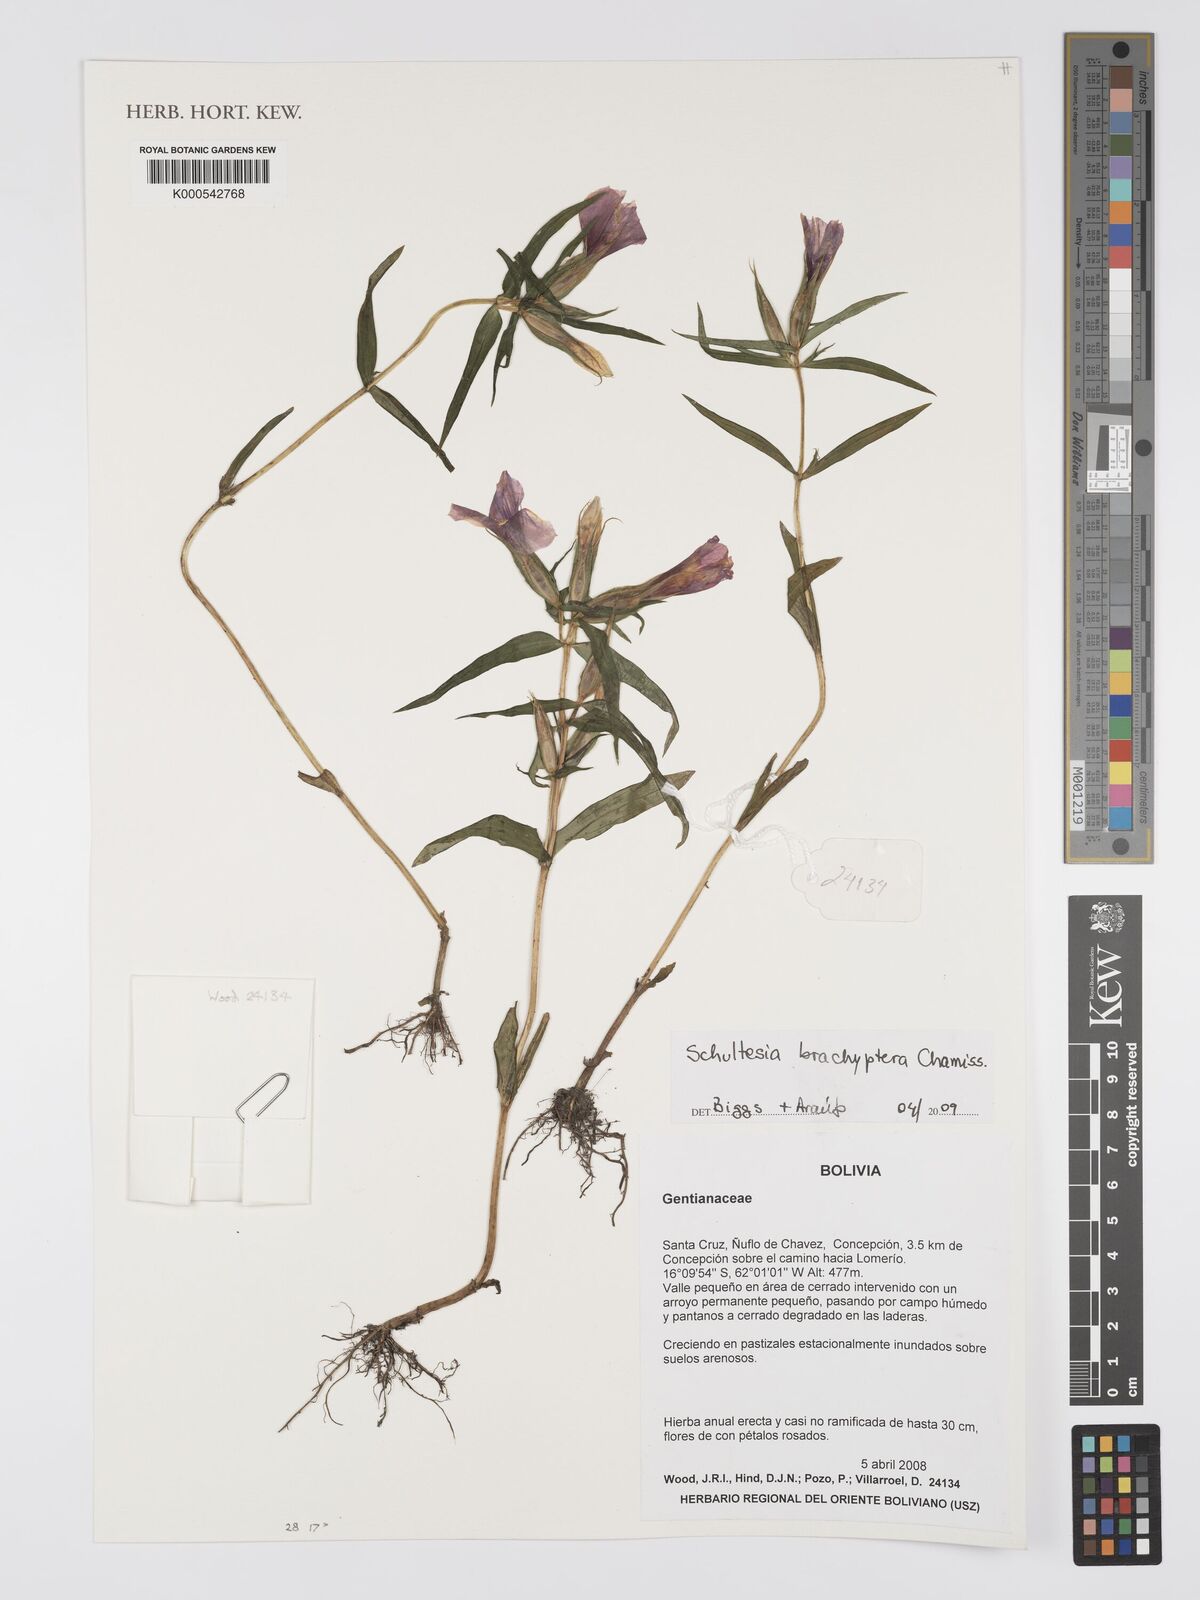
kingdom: Plantae
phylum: Tracheophyta
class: Magnoliopsida
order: Gentianales
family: Gentianaceae
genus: Schultesia
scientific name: Schultesia brachyptera
